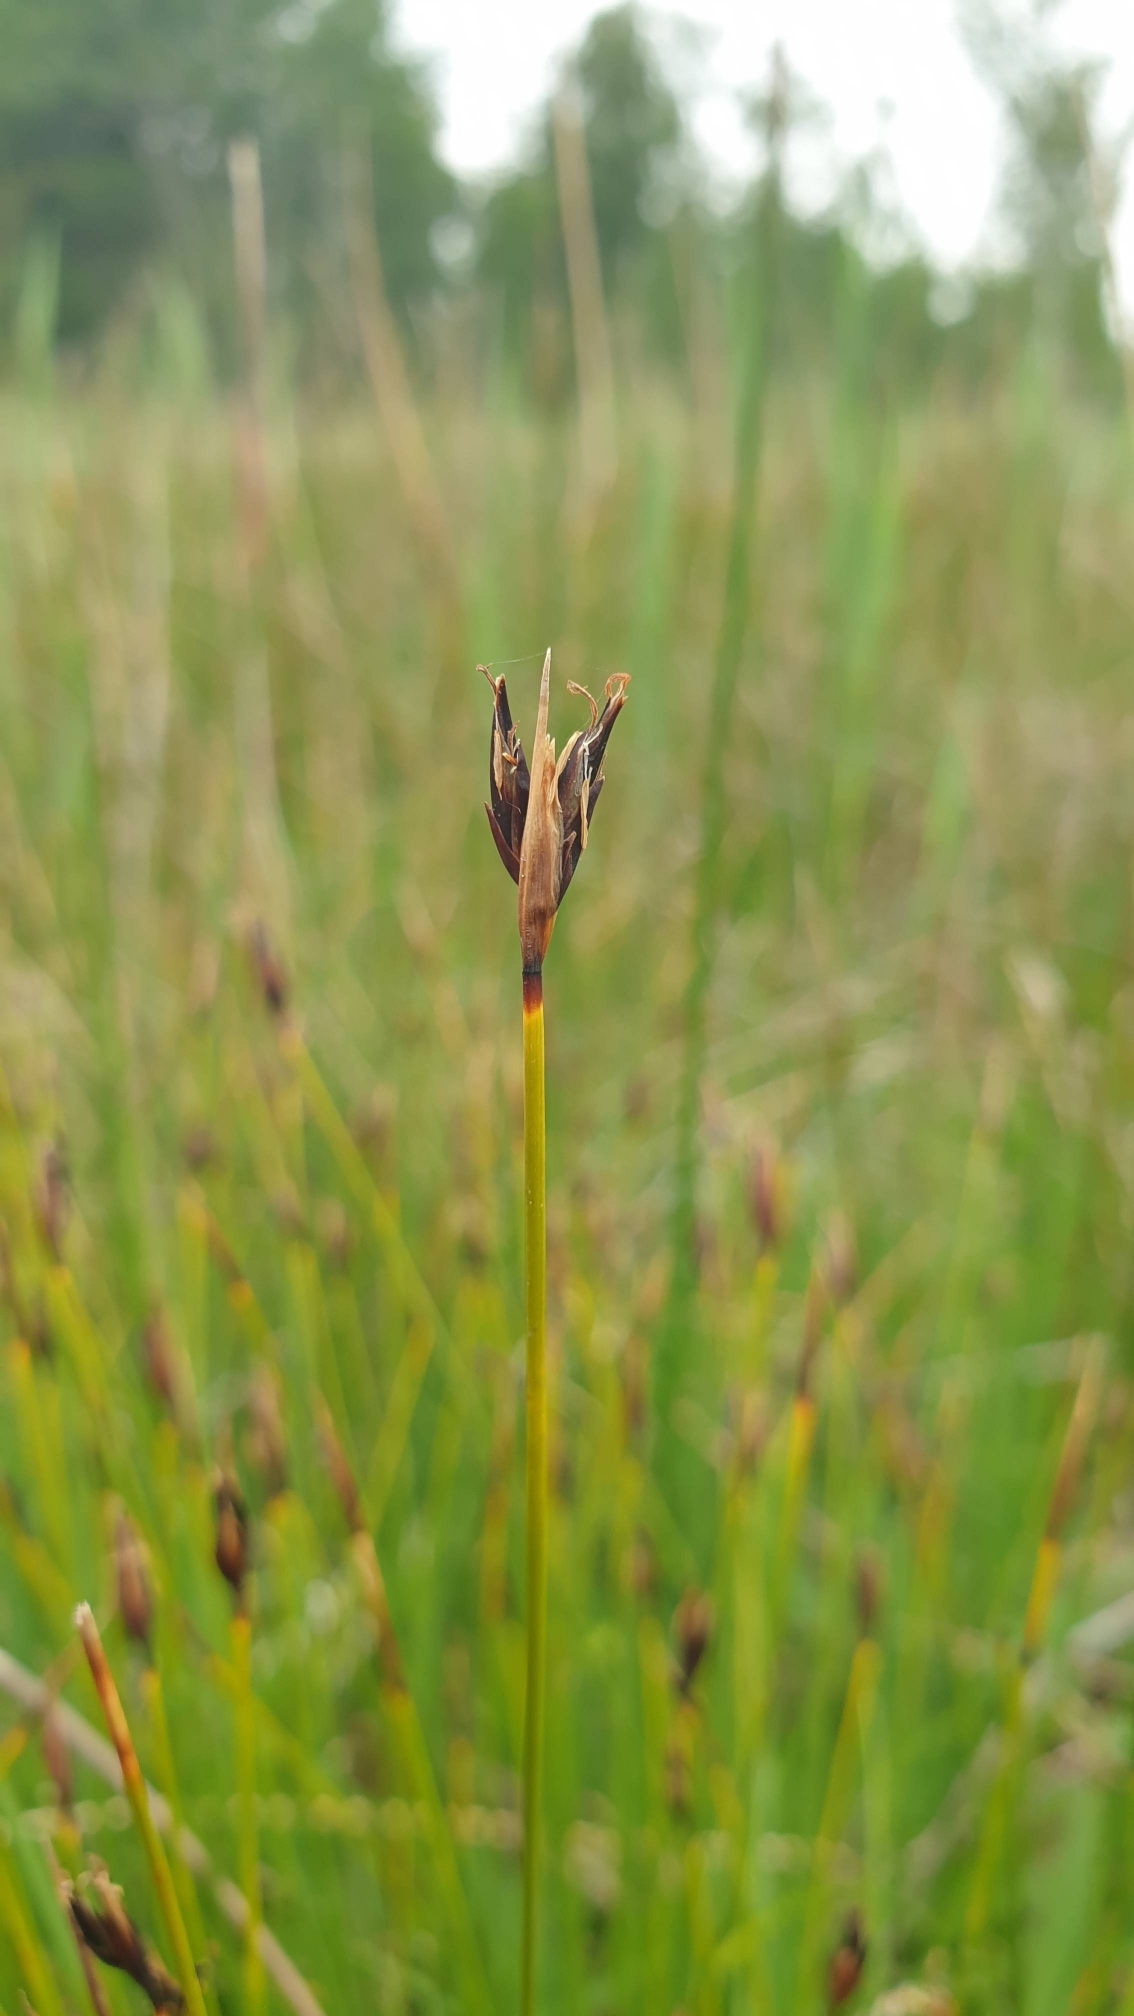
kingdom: Plantae
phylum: Tracheophyta
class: Liliopsida
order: Poales
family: Cyperaceae
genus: Schoenus
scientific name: Schoenus ferrugineus
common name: Rust-skæne
